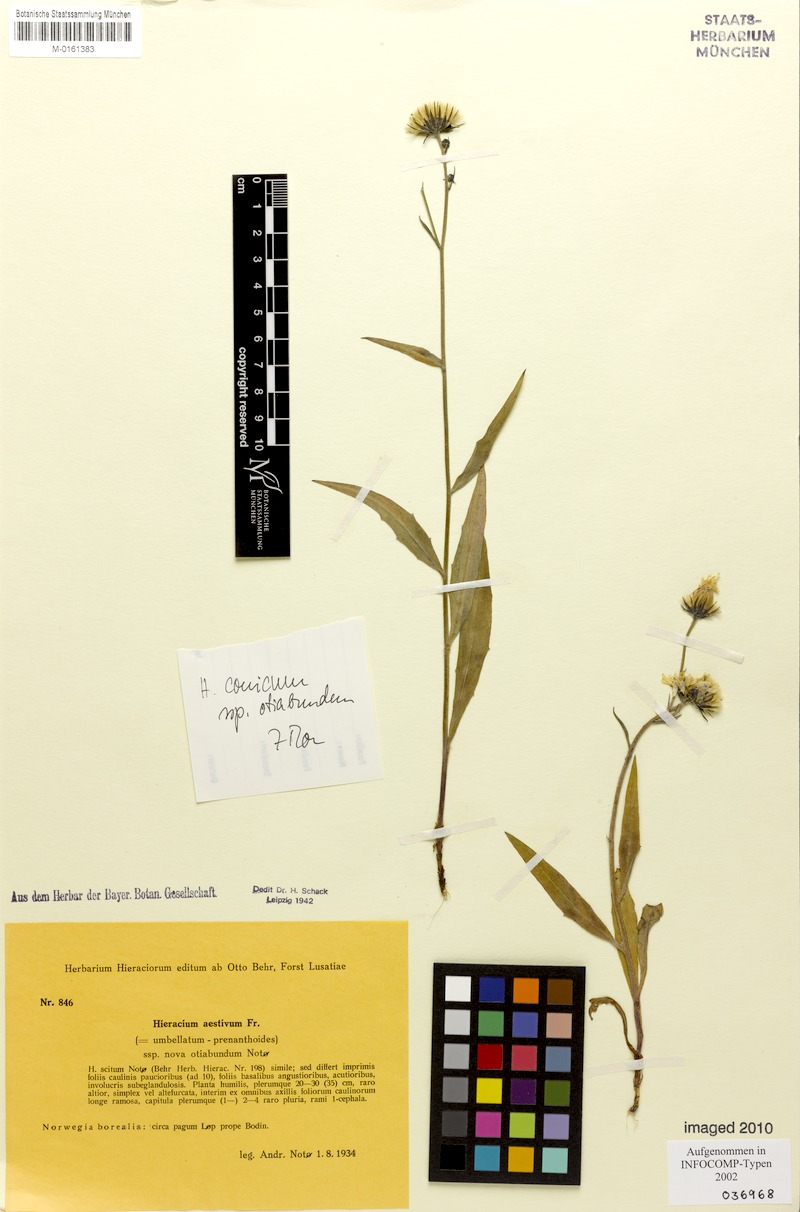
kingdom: Plantae
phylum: Tracheophyta
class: Magnoliopsida
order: Asterales
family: Asteraceae
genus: Hieracium
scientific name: Hieracium conicum
